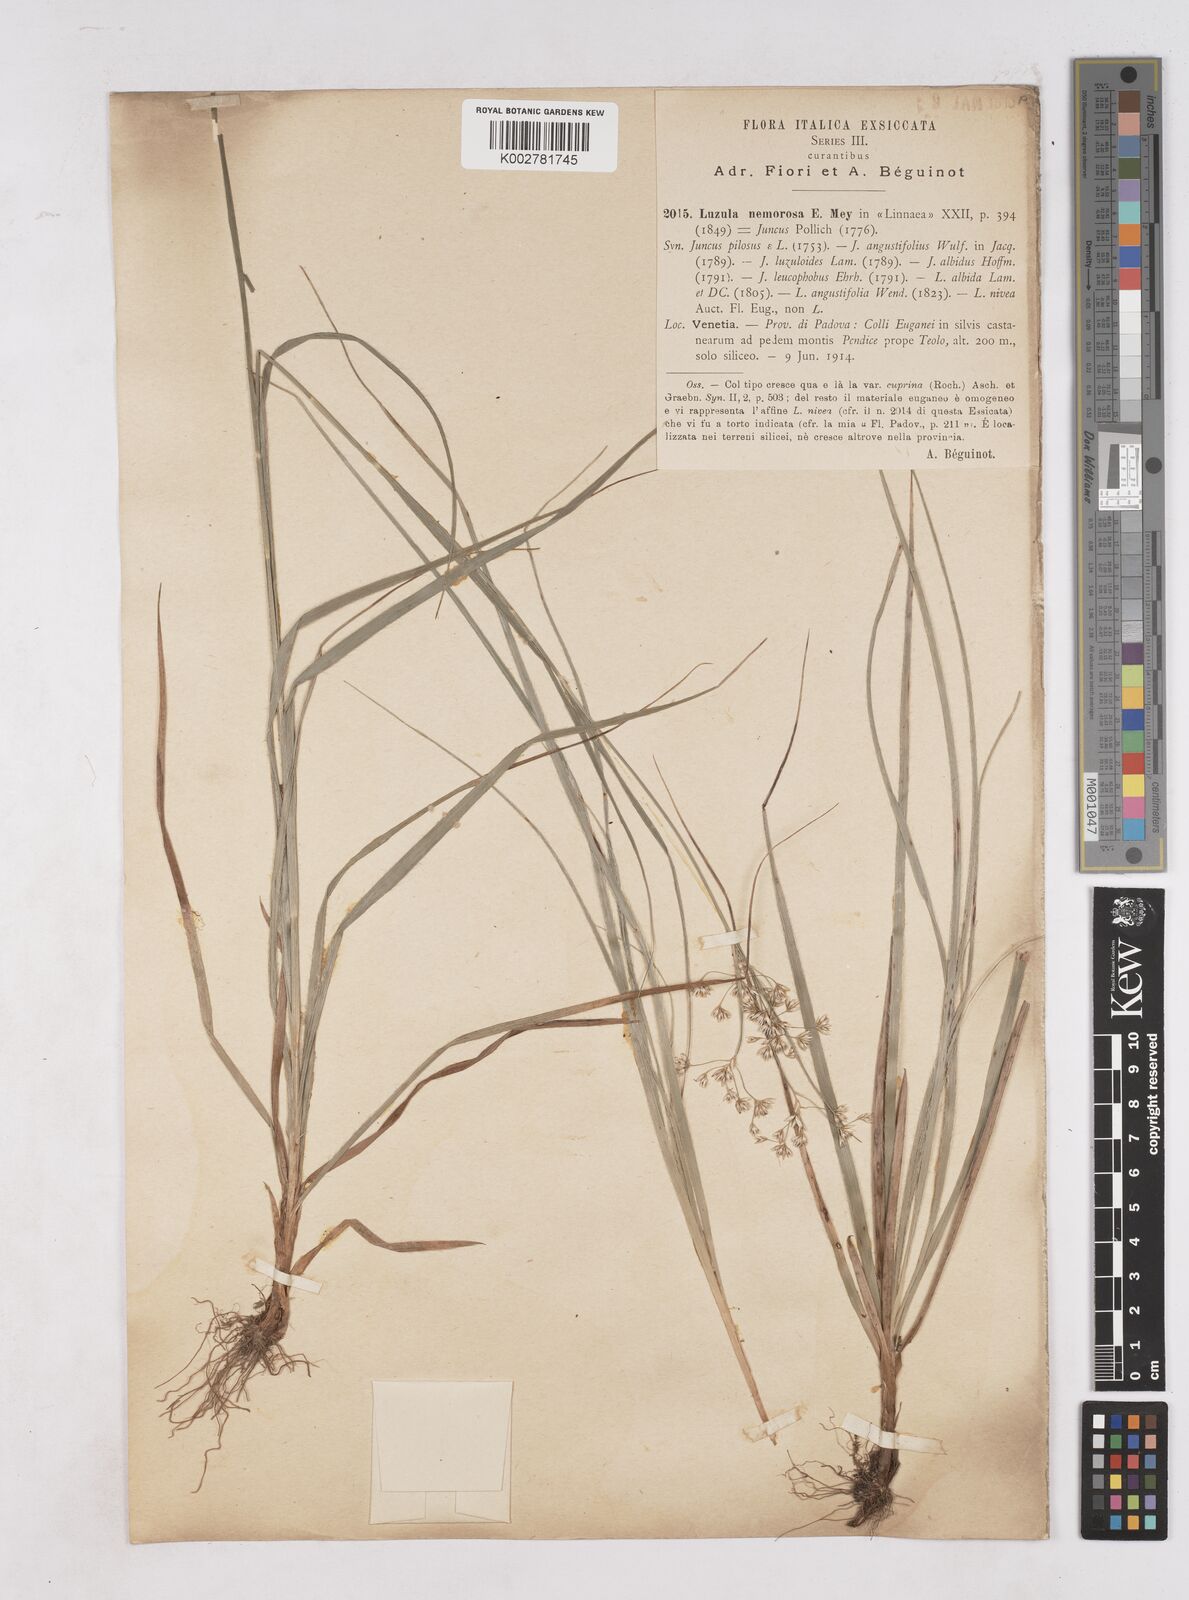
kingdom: Plantae
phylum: Tracheophyta
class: Liliopsida
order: Poales
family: Juncaceae
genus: Luzula
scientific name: Luzula luzuloides
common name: White wood-rush
